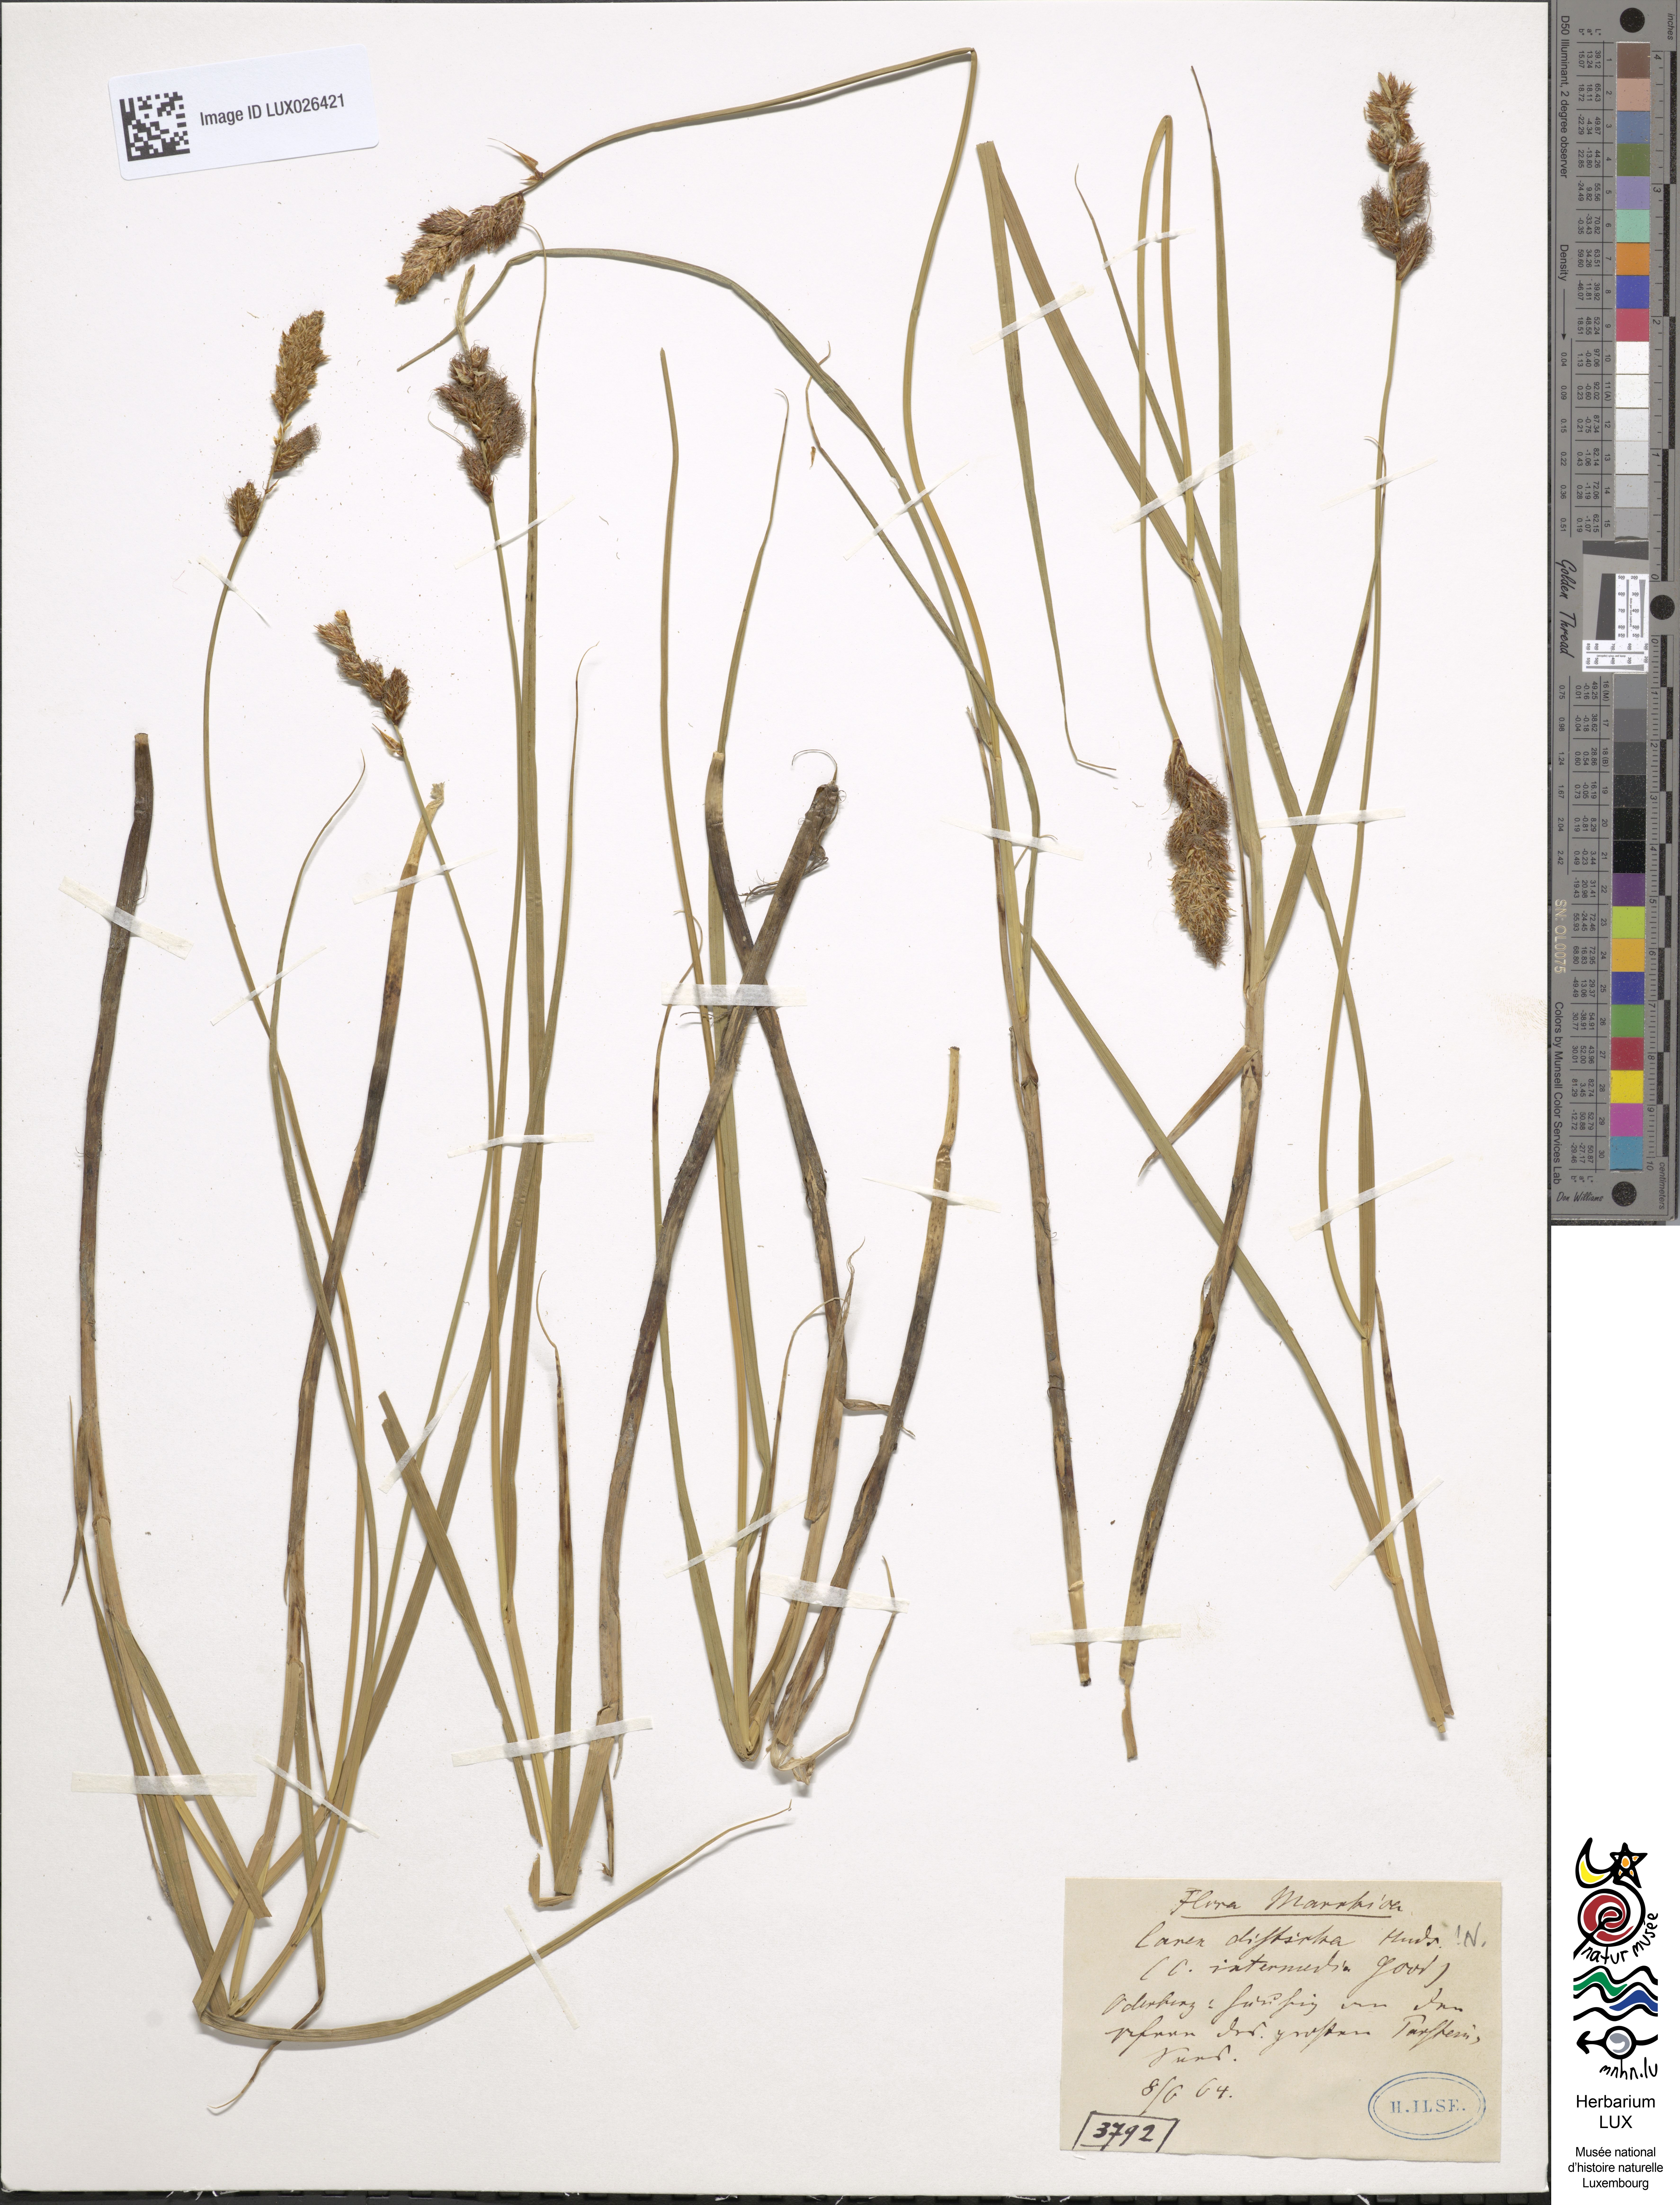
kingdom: Plantae
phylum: Tracheophyta
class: Liliopsida
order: Poales
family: Cyperaceae
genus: Carex
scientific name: Carex disticha
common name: Brown sedge
